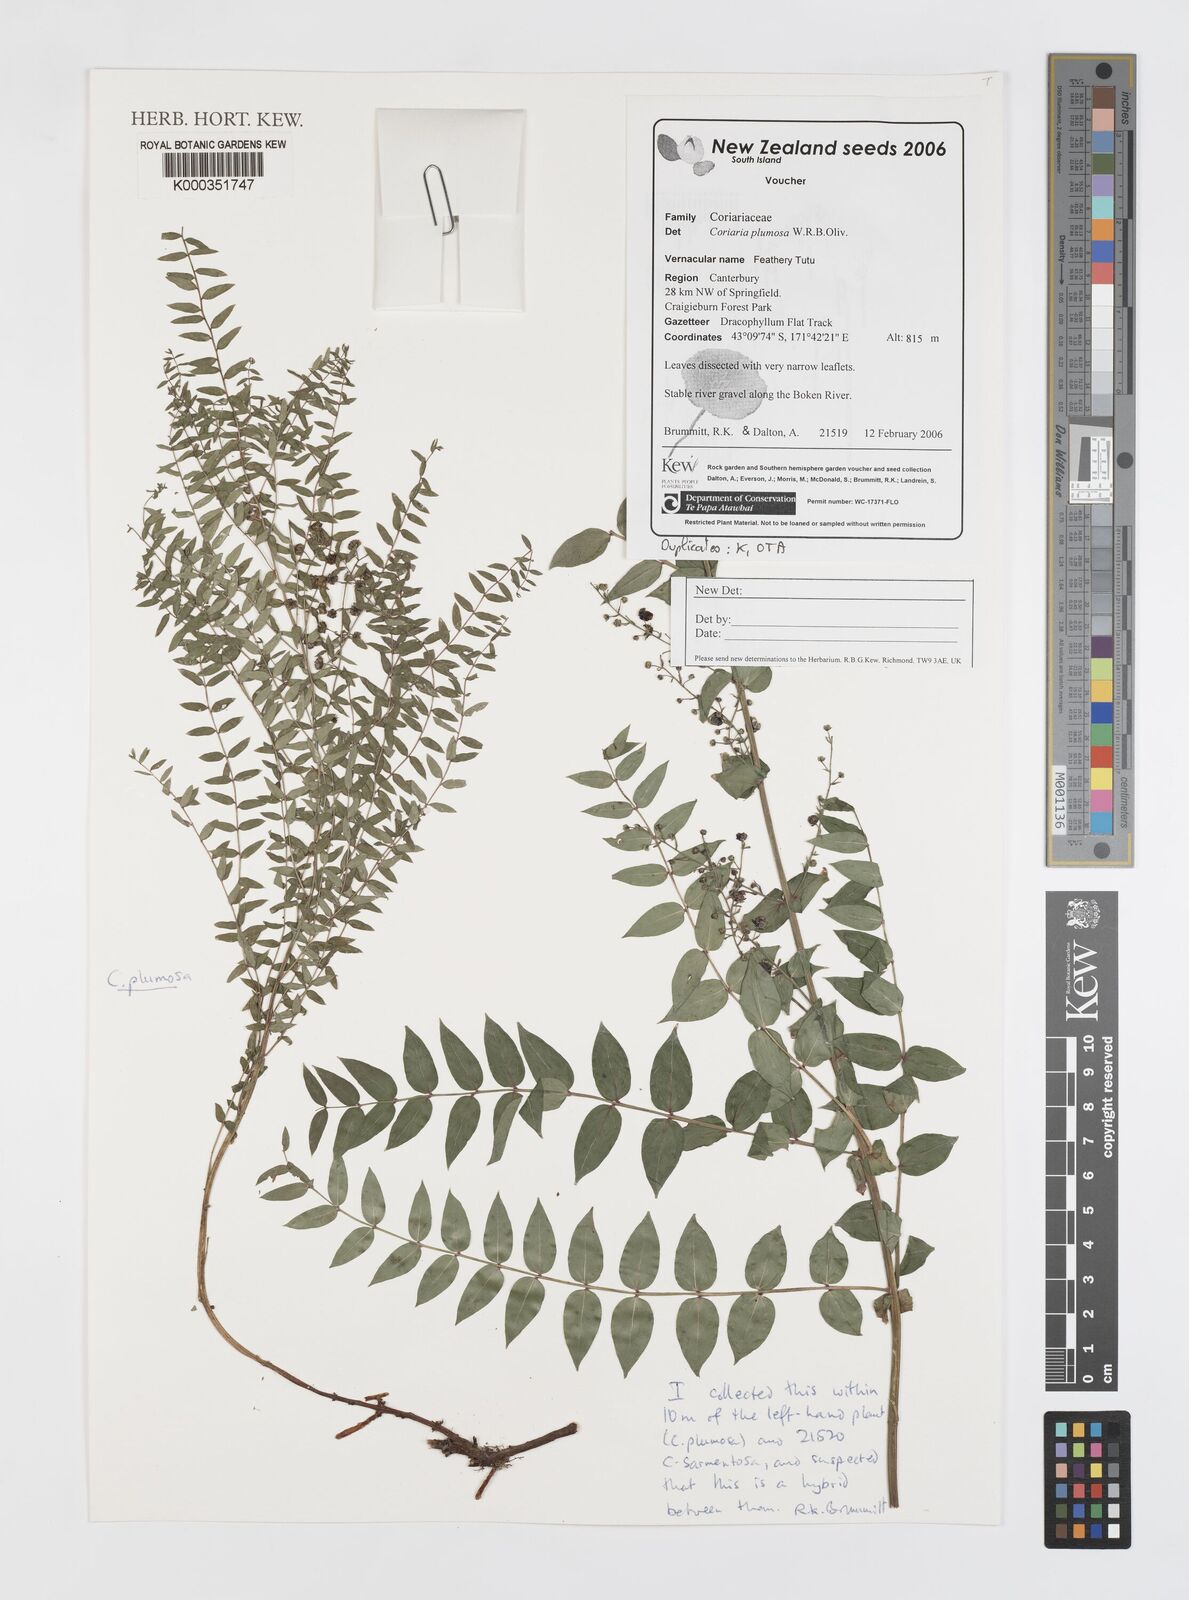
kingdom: Plantae
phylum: Tracheophyta
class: Magnoliopsida
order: Cucurbitales
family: Coriariaceae
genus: Coriaria
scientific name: Coriaria plumosa
